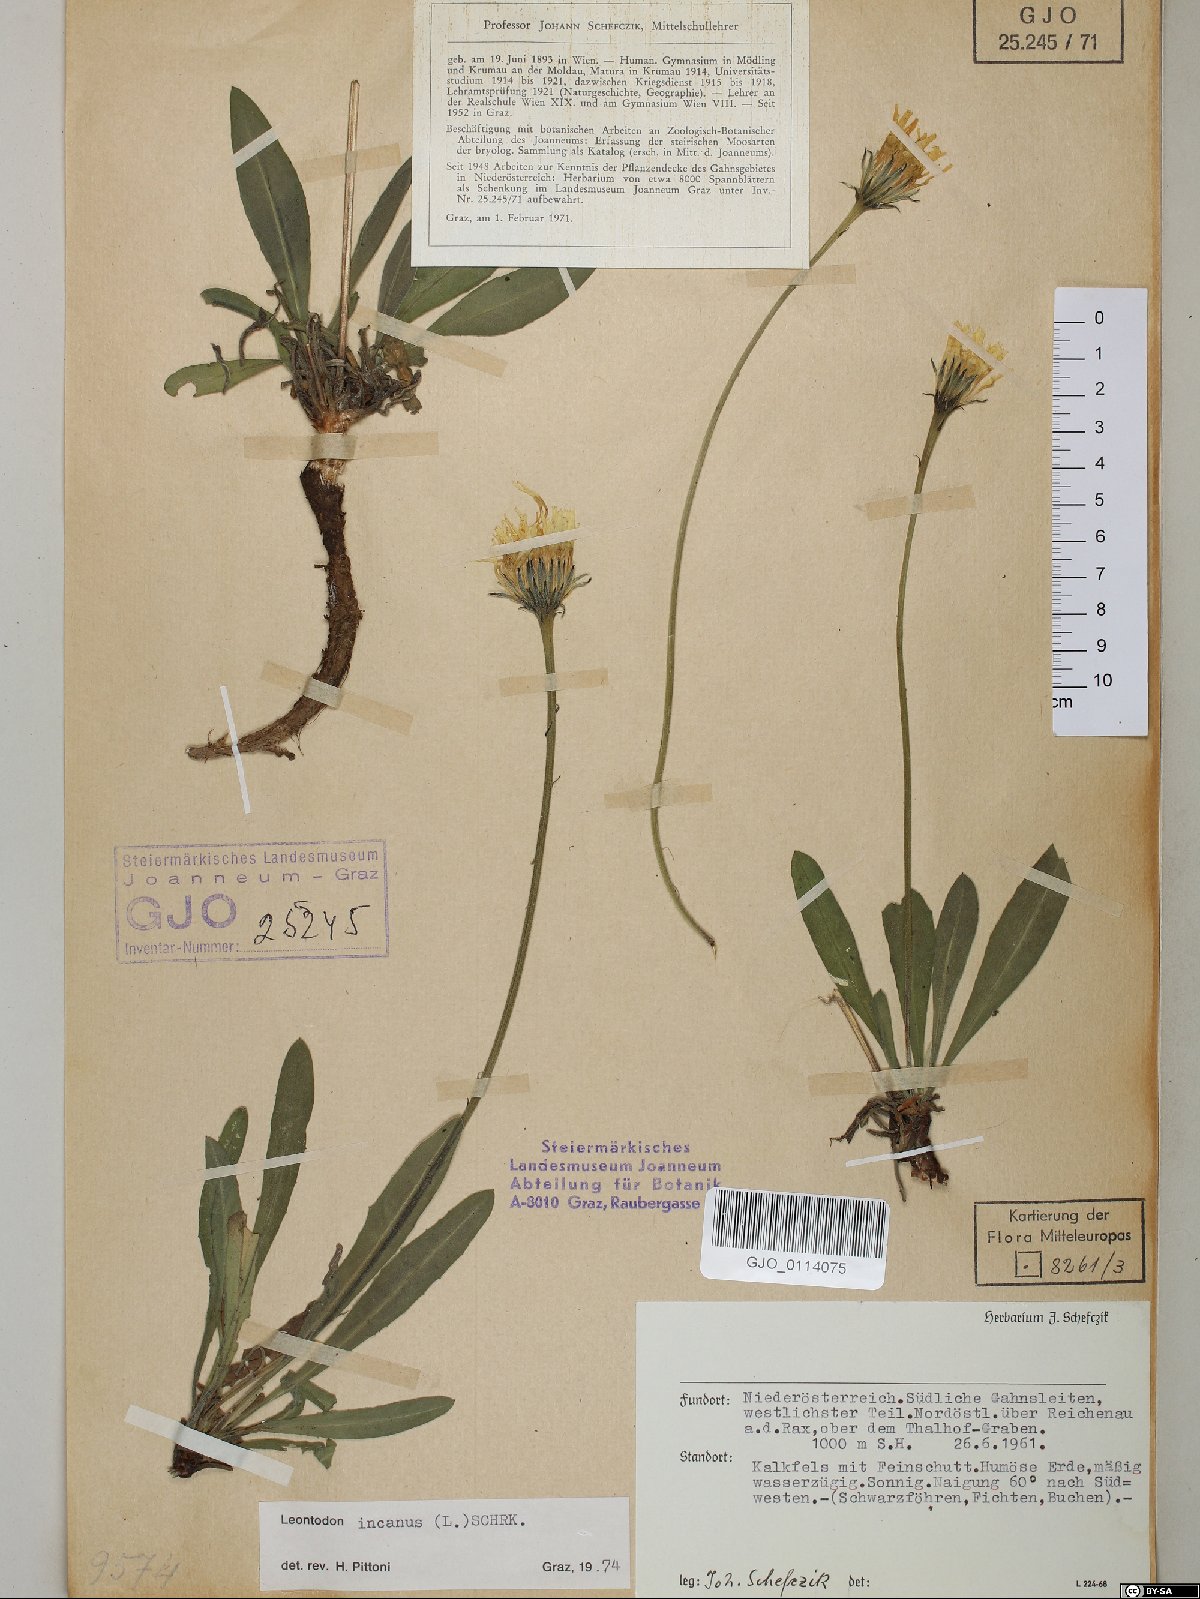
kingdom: Plantae
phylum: Tracheophyta
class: Magnoliopsida
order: Asterales
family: Asteraceae
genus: Leontodon
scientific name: Leontodon incanus
